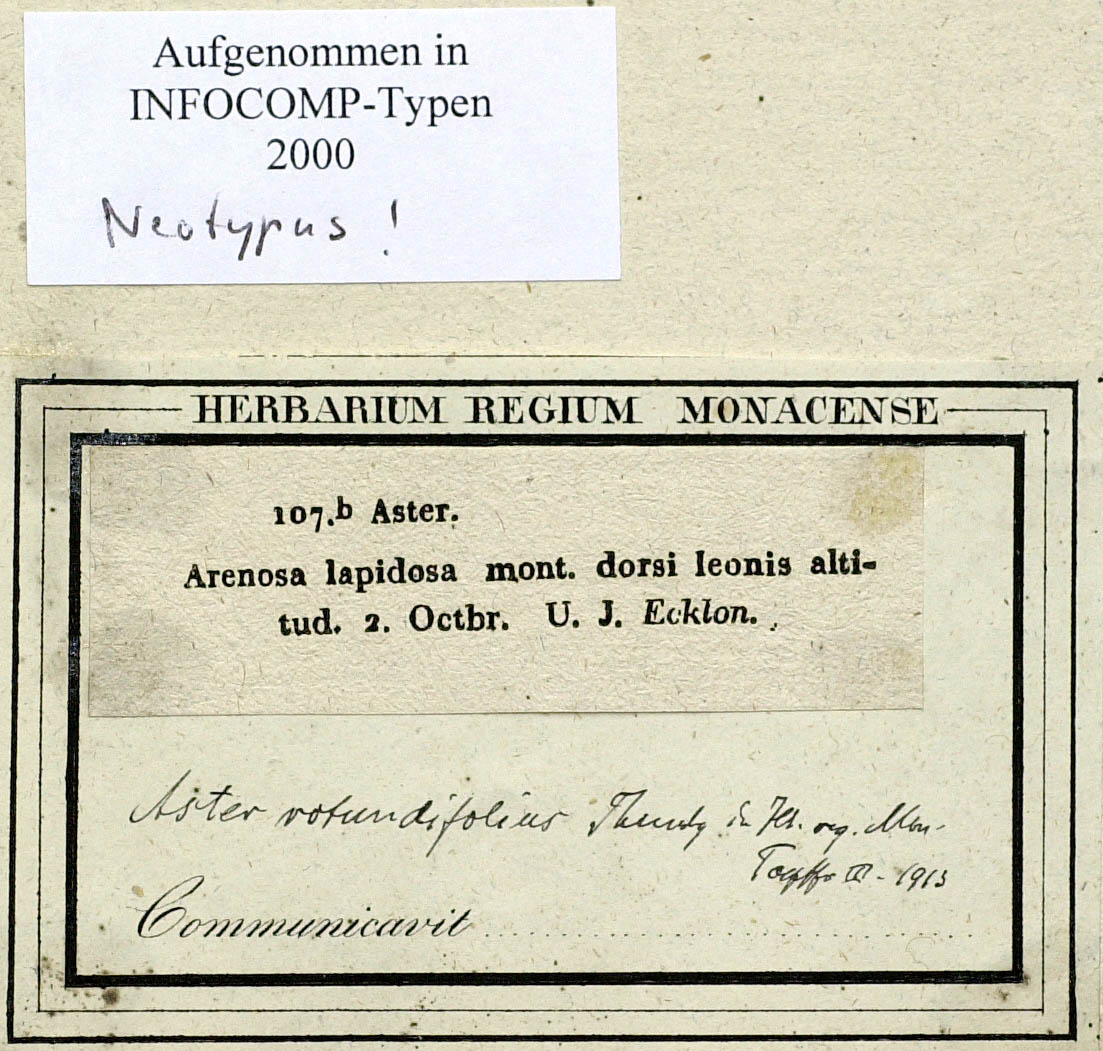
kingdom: Plantae
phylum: Tracheophyta
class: Magnoliopsida
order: Asterales
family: Asteraceae
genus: Felicia
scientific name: Felicia bergeriana
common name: Kingfisher daisy
